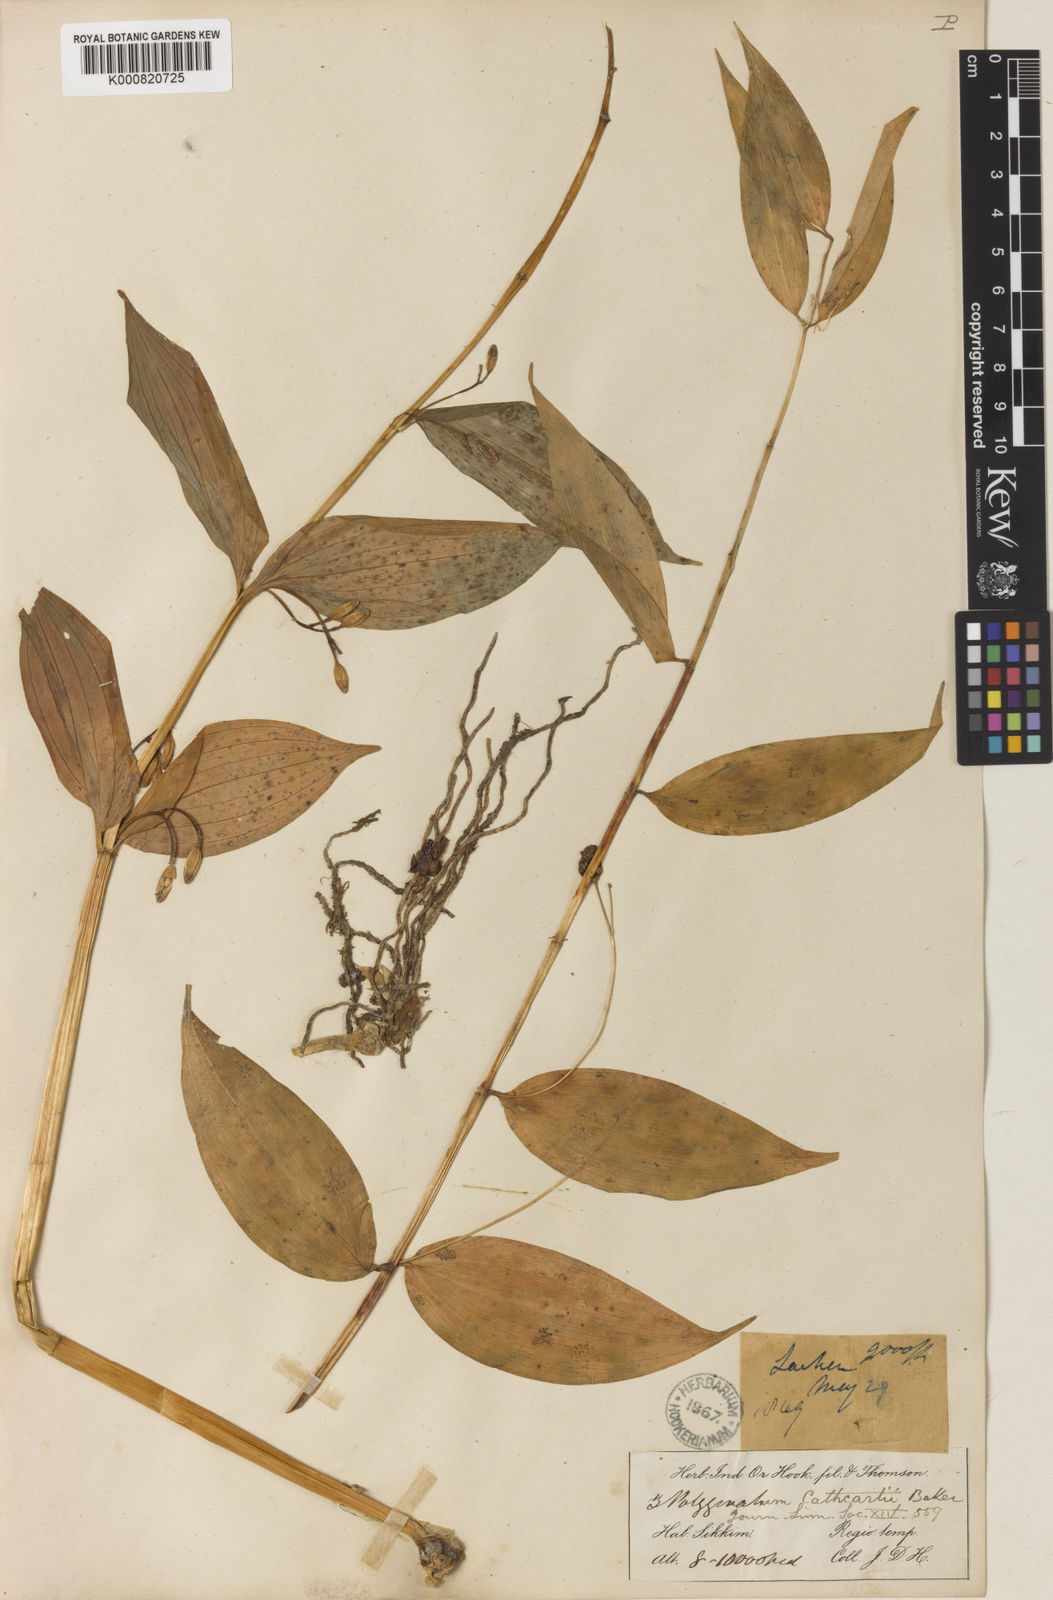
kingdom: Plantae
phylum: Tracheophyta
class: Liliopsida
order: Asparagales
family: Asparagaceae
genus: Polygonatum
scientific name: Polygonatum cathcartii
